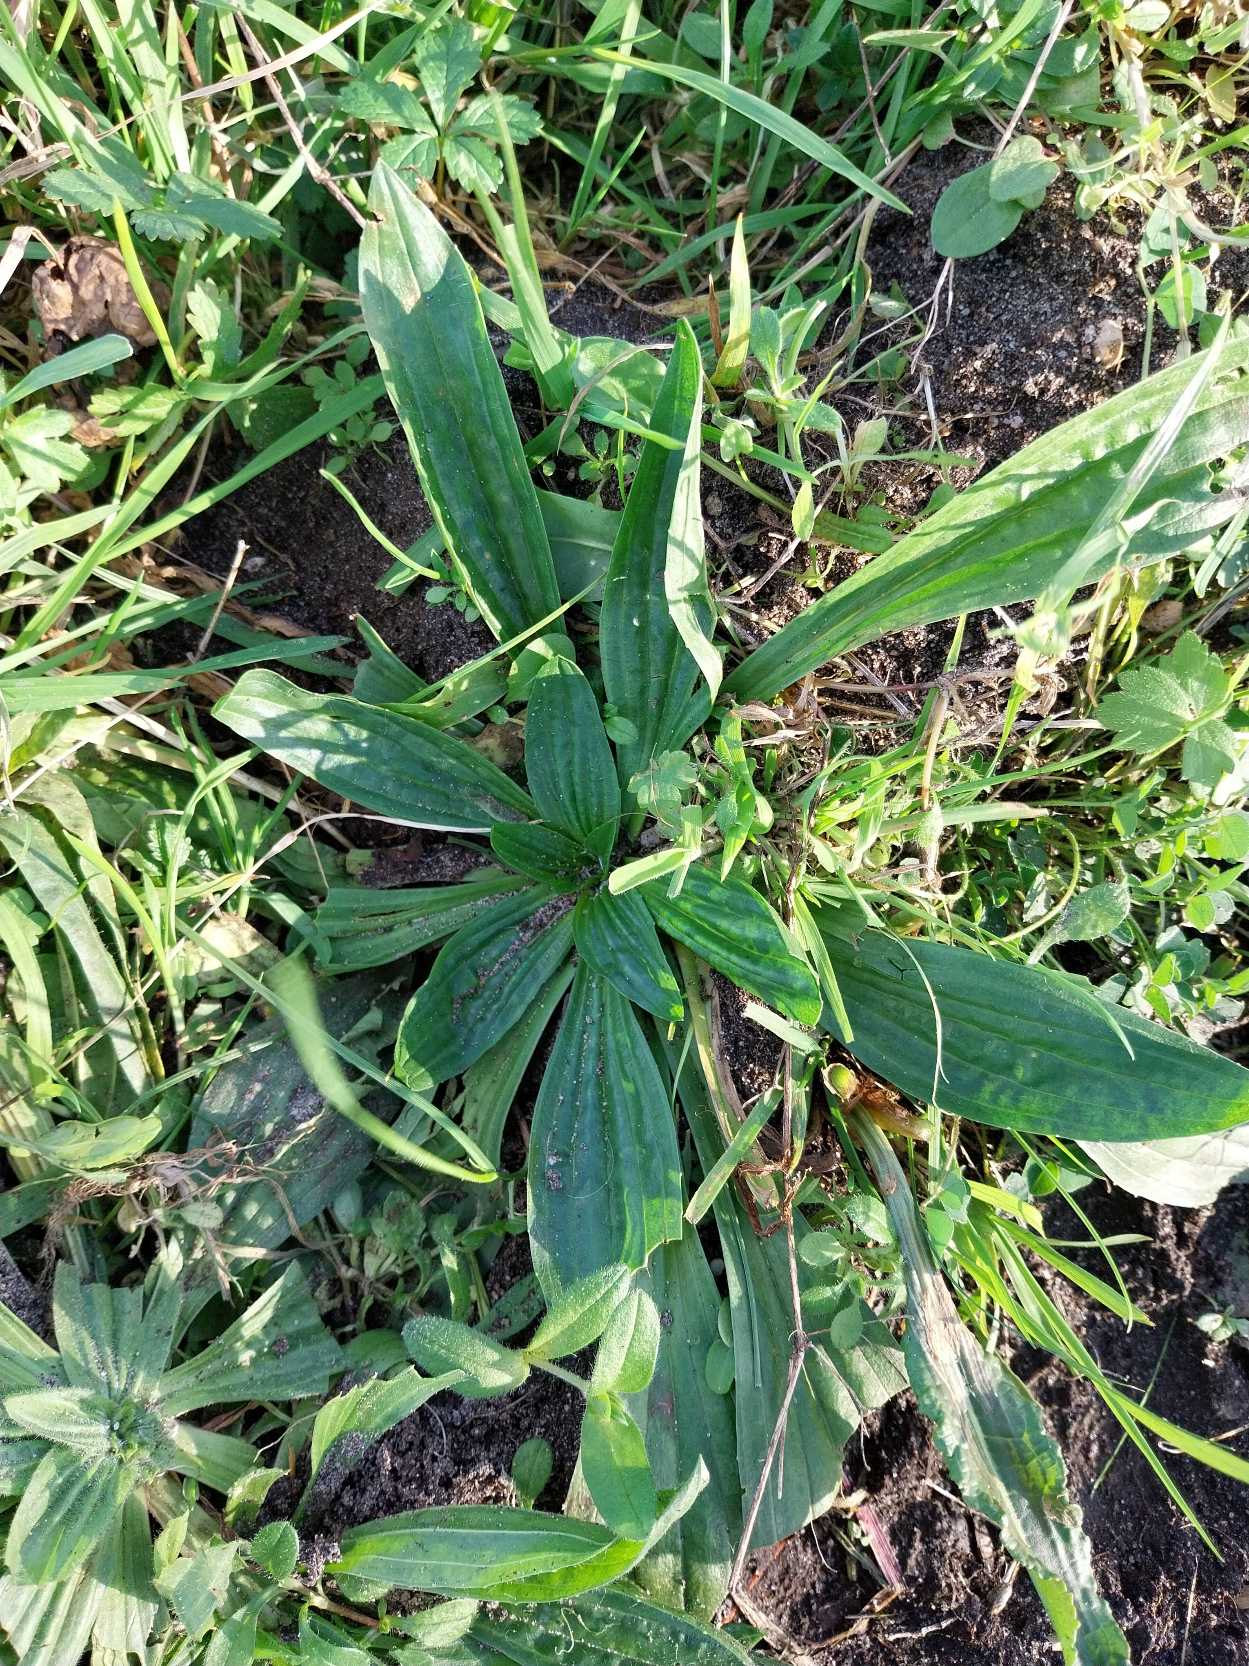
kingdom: Plantae
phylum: Tracheophyta
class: Magnoliopsida
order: Lamiales
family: Plantaginaceae
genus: Plantago
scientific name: Plantago lanceolata
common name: Lancet-vejbred
